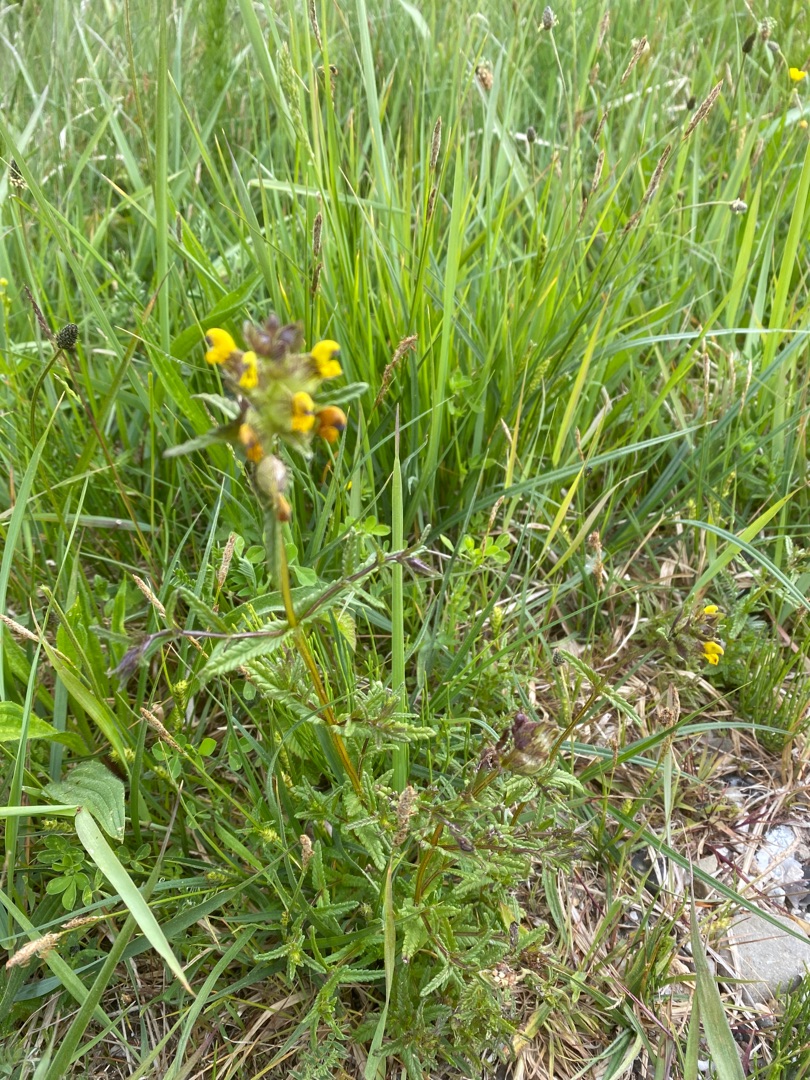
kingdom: Plantae
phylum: Tracheophyta
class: Magnoliopsida
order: Lamiales
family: Orobanchaceae
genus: Rhinanthus
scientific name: Rhinanthus minor
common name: Liden skjaller
